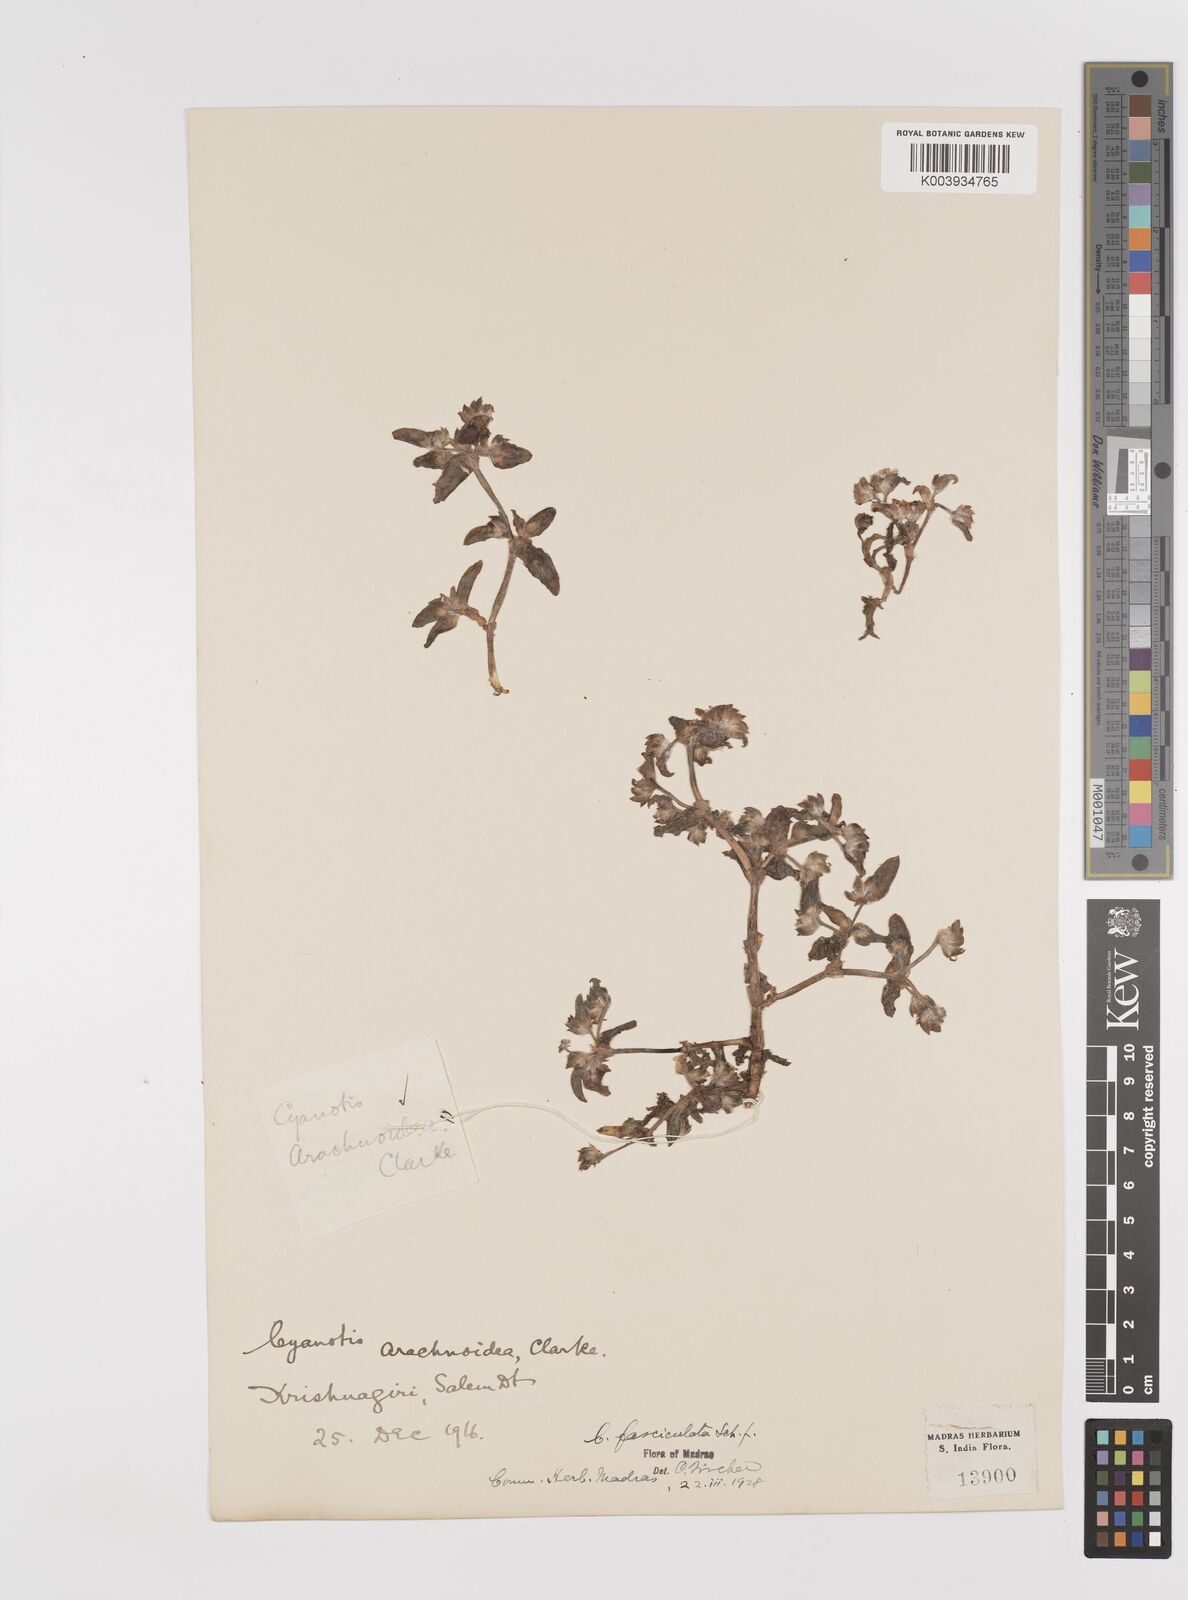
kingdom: Plantae
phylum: Tracheophyta
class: Liliopsida
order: Commelinales
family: Commelinaceae
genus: Cyanotis
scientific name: Cyanotis fasciculata
